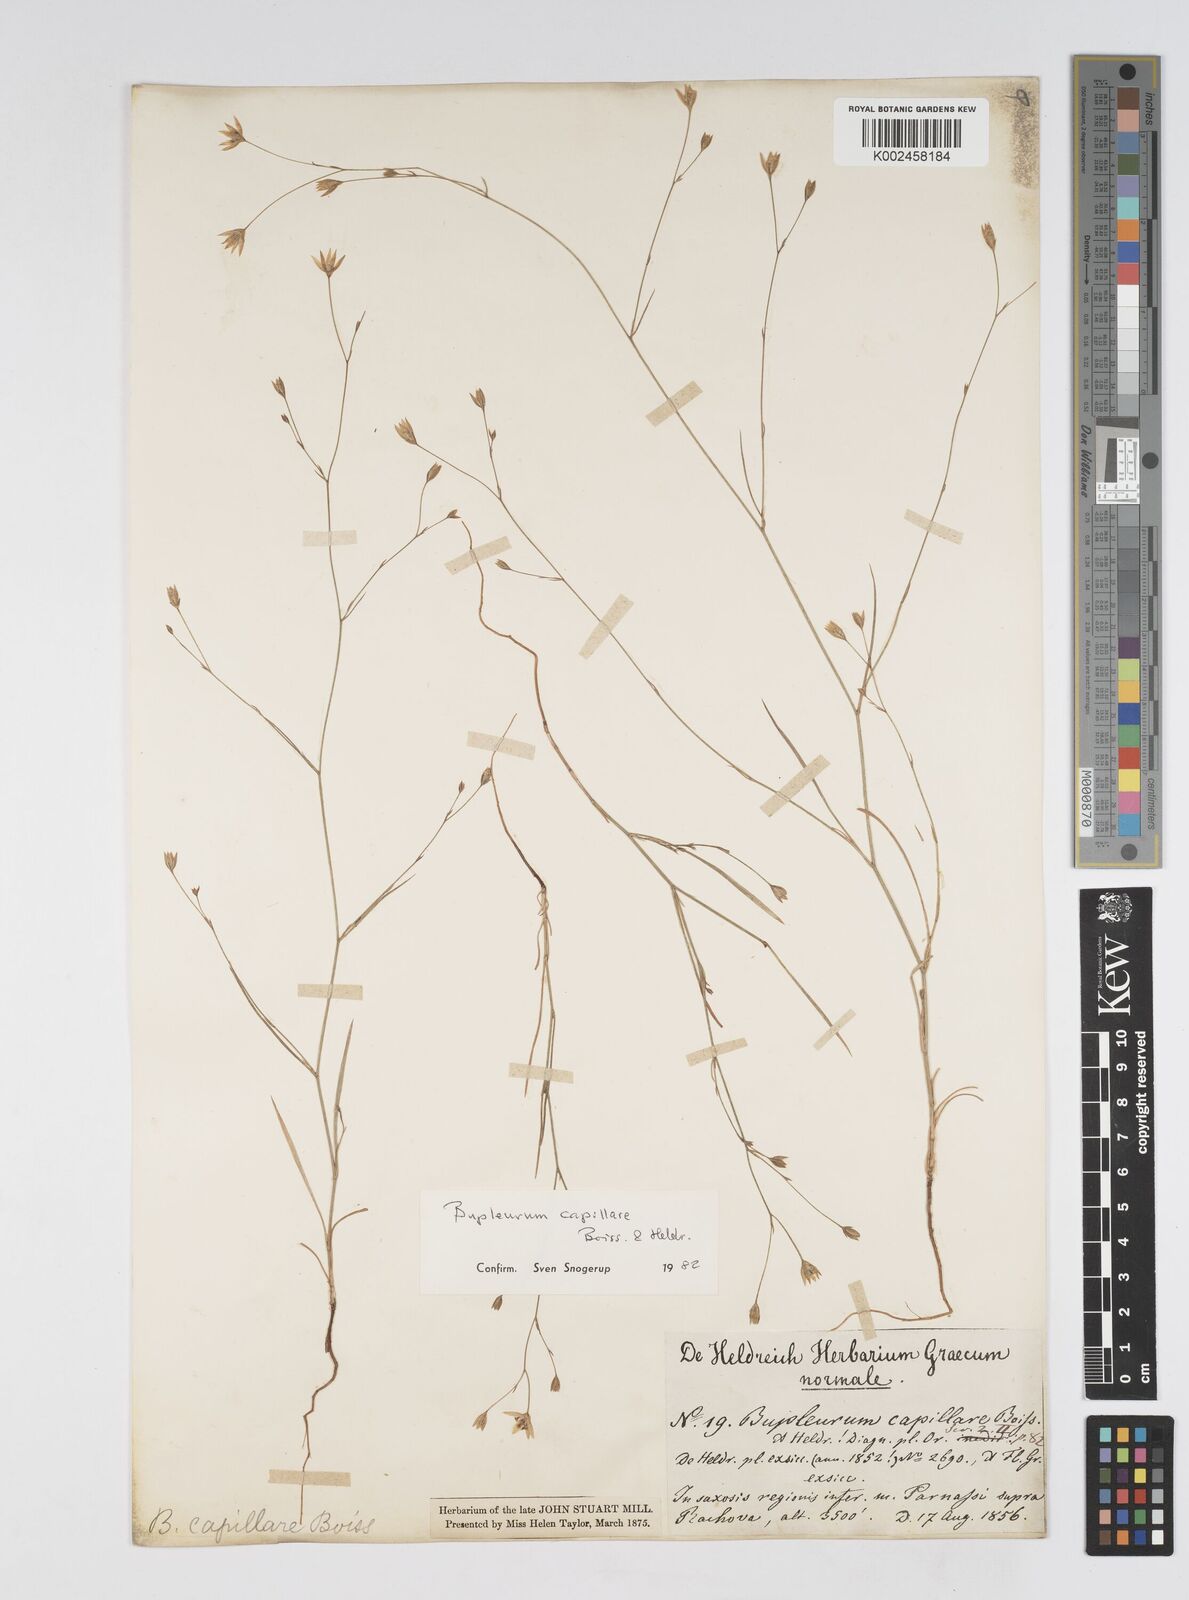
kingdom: Plantae
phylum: Tracheophyta
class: Magnoliopsida
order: Apiales
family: Apiaceae
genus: Bupleurum
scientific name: Bupleurum capillare
